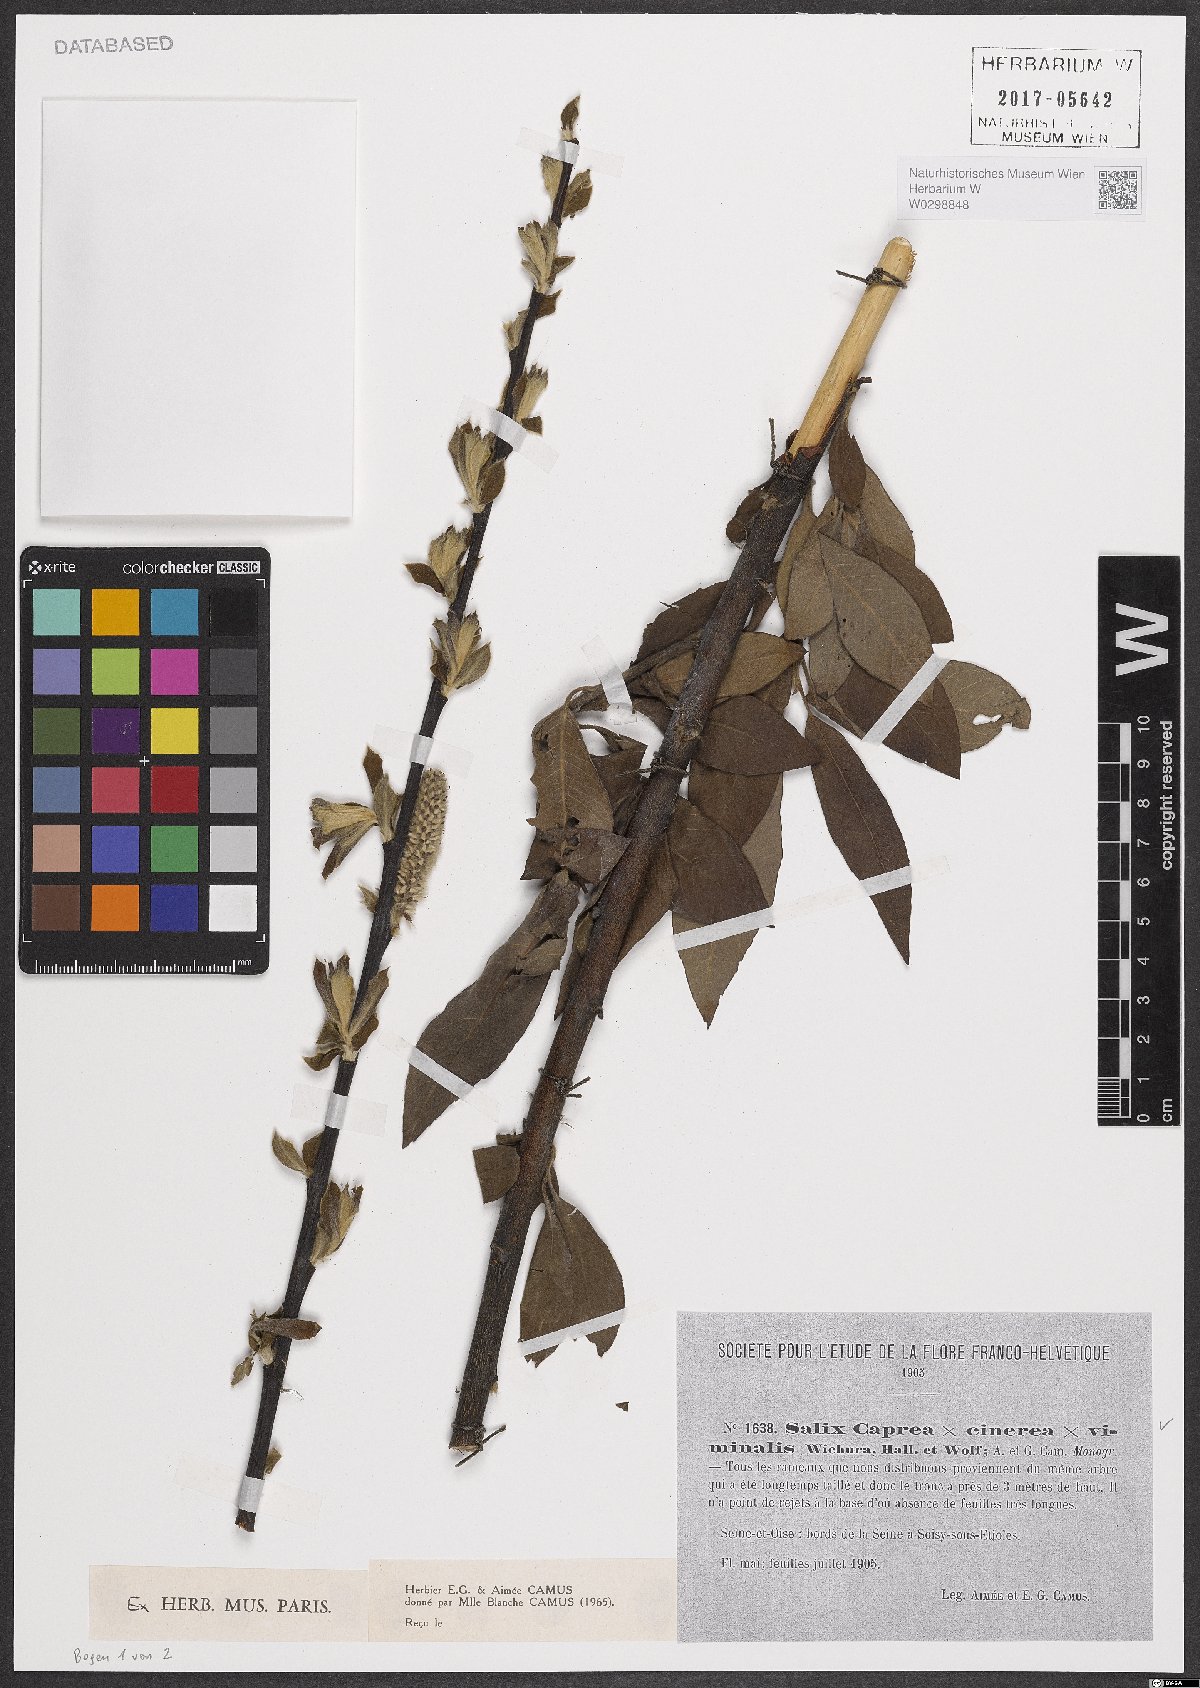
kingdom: Plantae
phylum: Tracheophyta
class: Magnoliopsida
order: Malpighiales
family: Salicaceae
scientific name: Salicaceae
